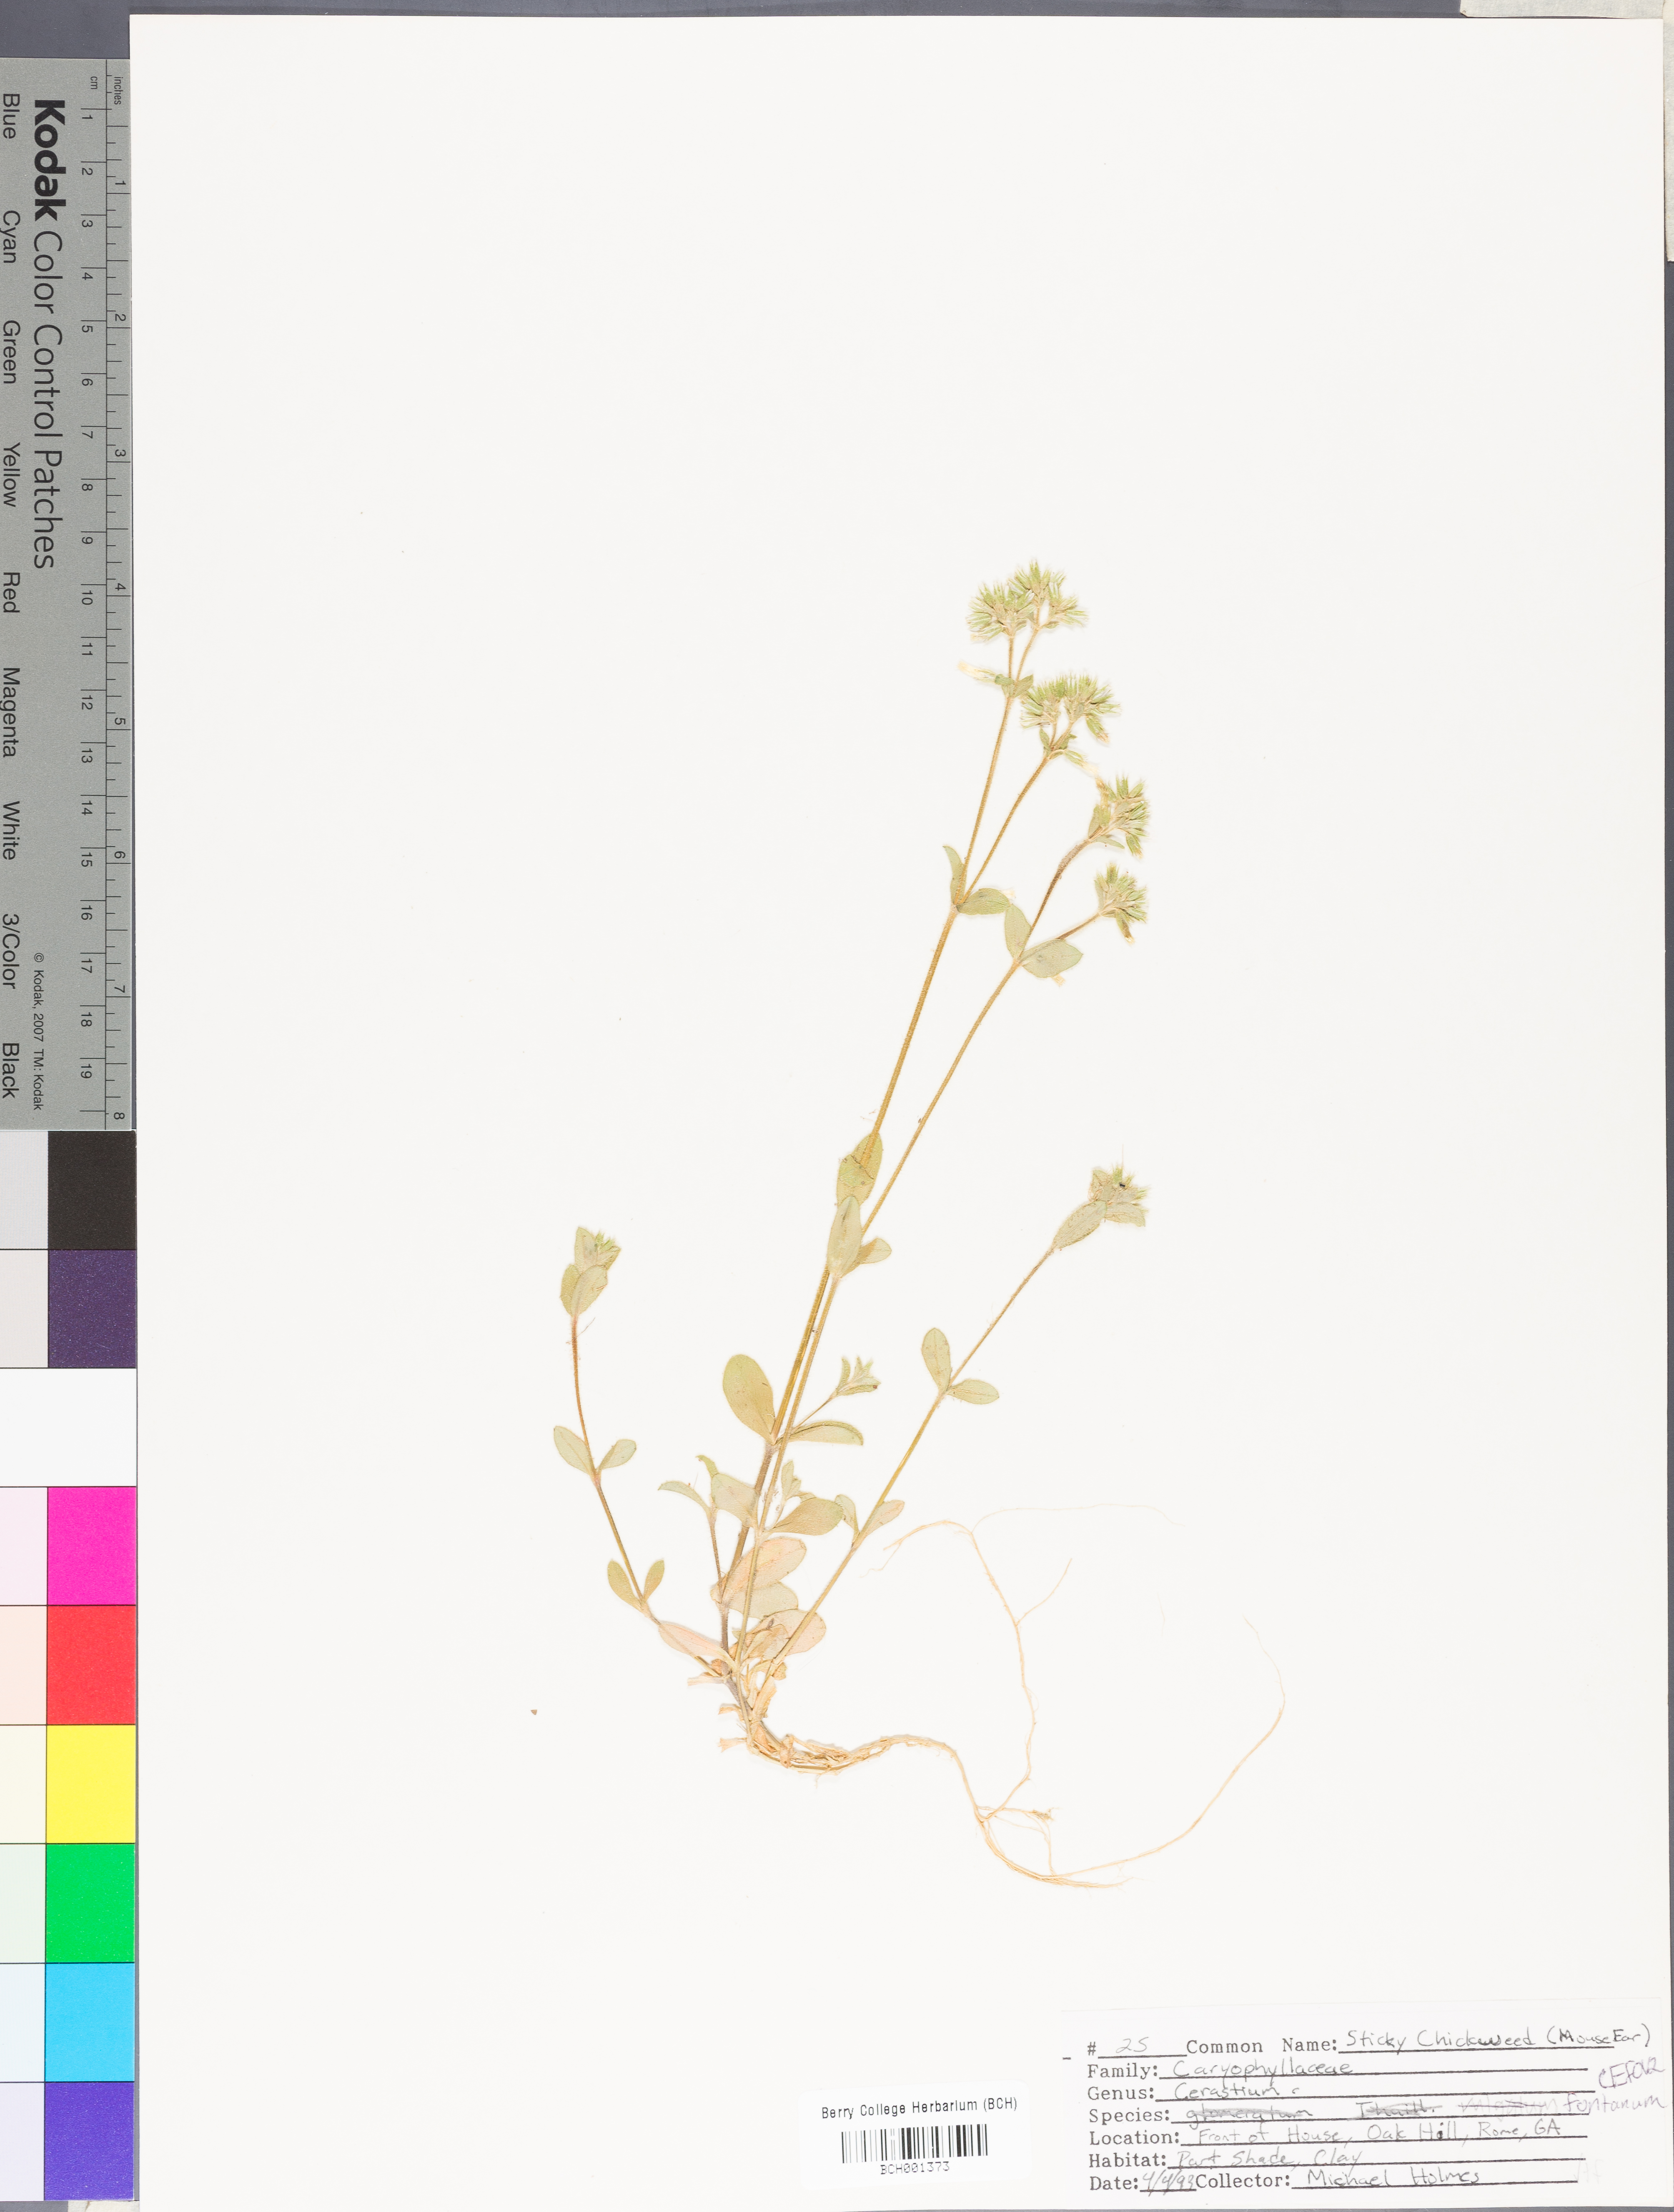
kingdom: Plantae
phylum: Tracheophyta
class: Magnoliopsida
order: Caryophyllales
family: Caryophyllaceae
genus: Cerastium
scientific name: Cerastium holosteoides
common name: Big chickweed
